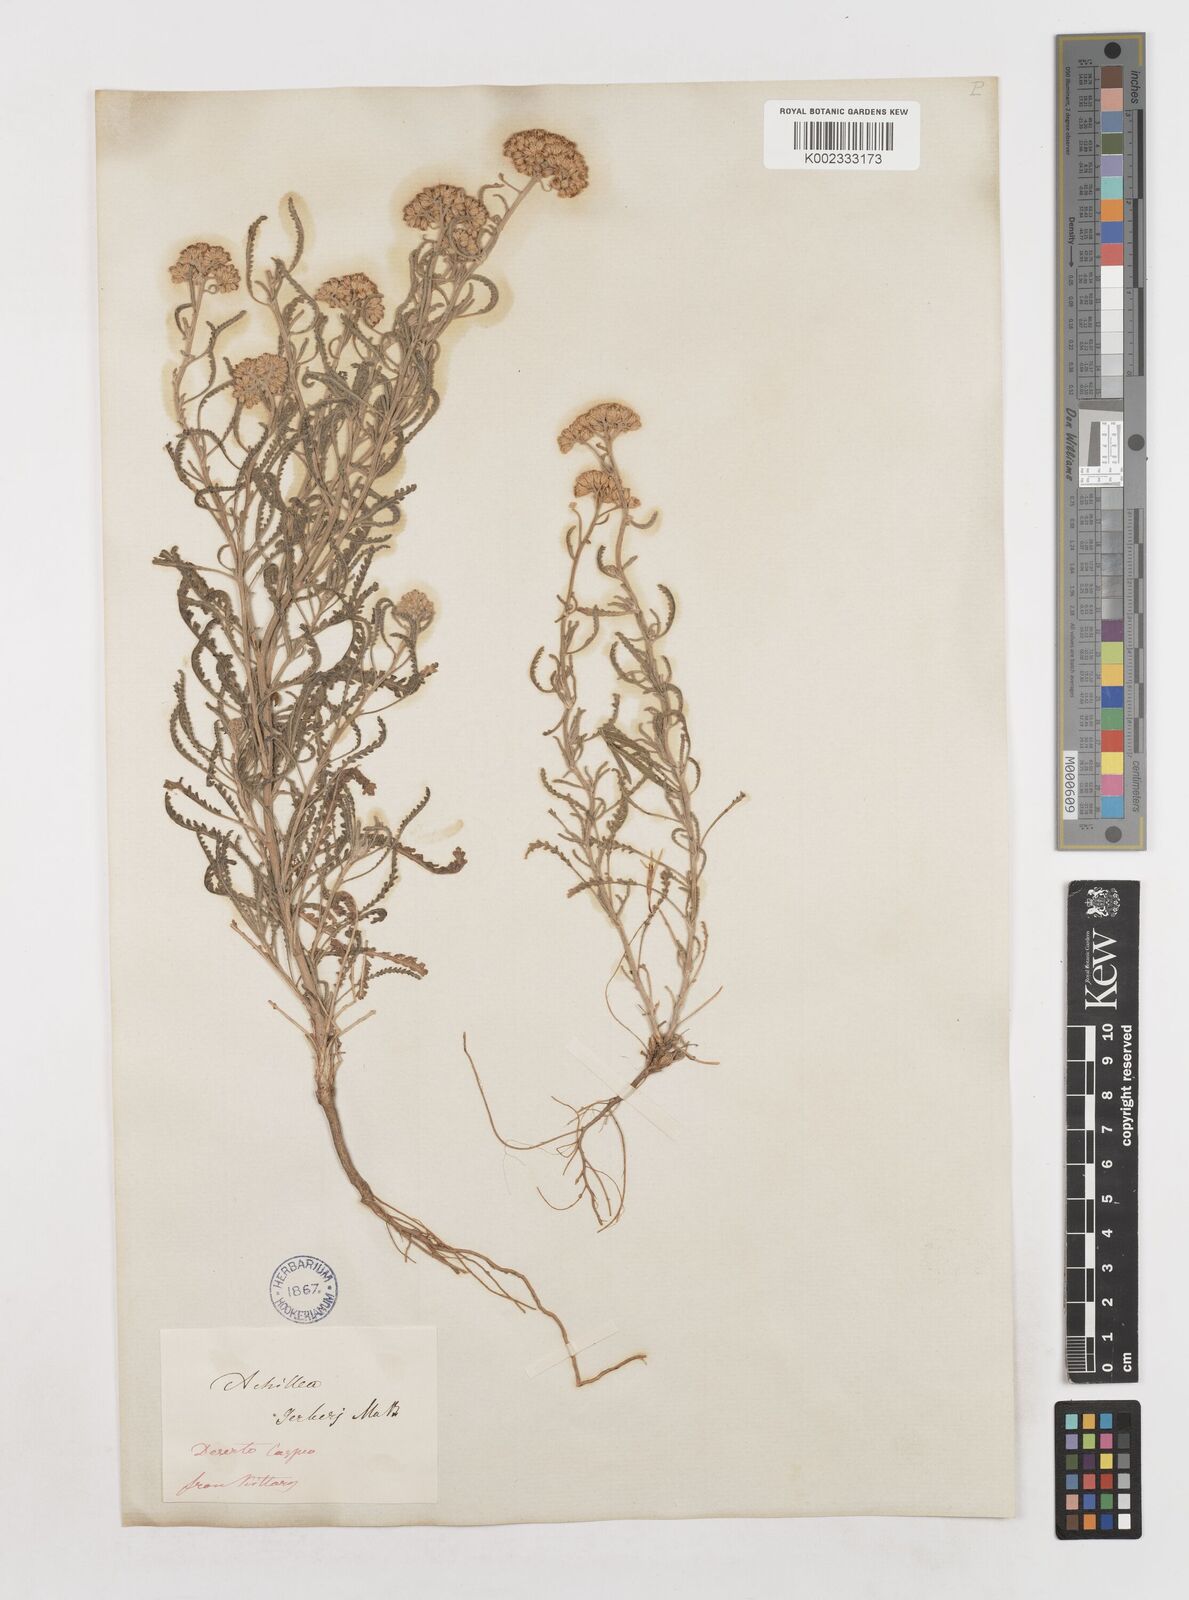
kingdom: Plantae
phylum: Tracheophyta
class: Magnoliopsida
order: Asterales
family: Asteraceae
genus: Achillea
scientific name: Achillea nobilis
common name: Noble yarrow
